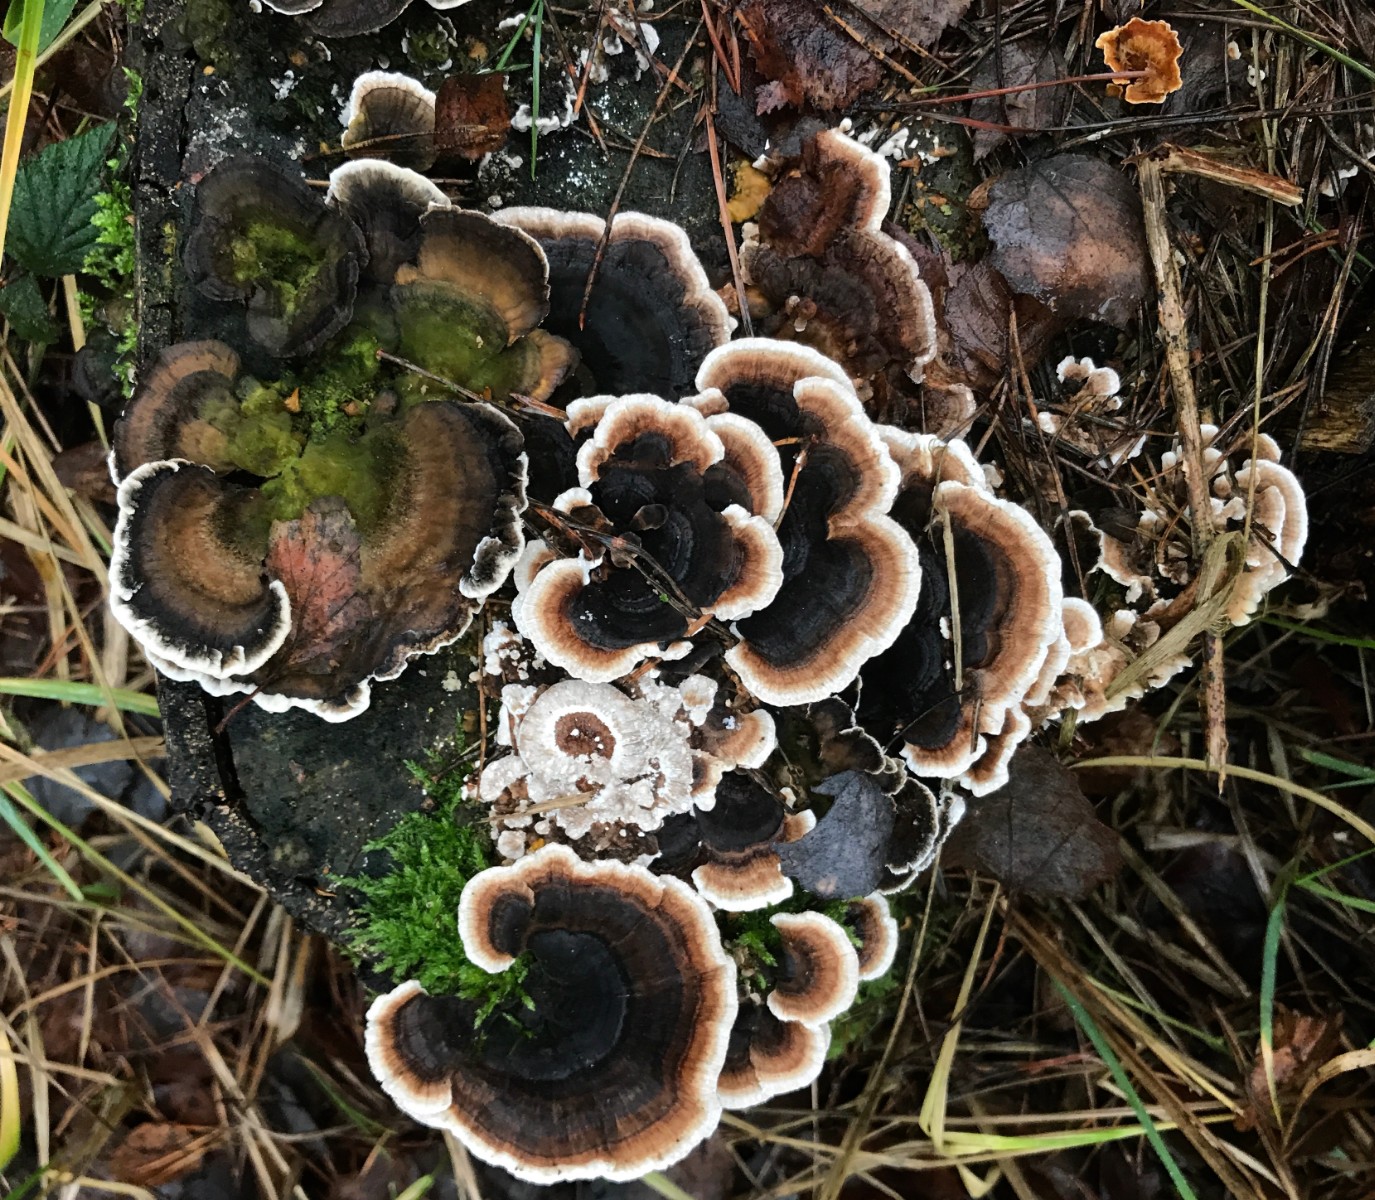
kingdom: Fungi
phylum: Basidiomycota
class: Agaricomycetes
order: Polyporales
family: Polyporaceae
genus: Trametes
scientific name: Trametes versicolor
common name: broget læderporesvamp
